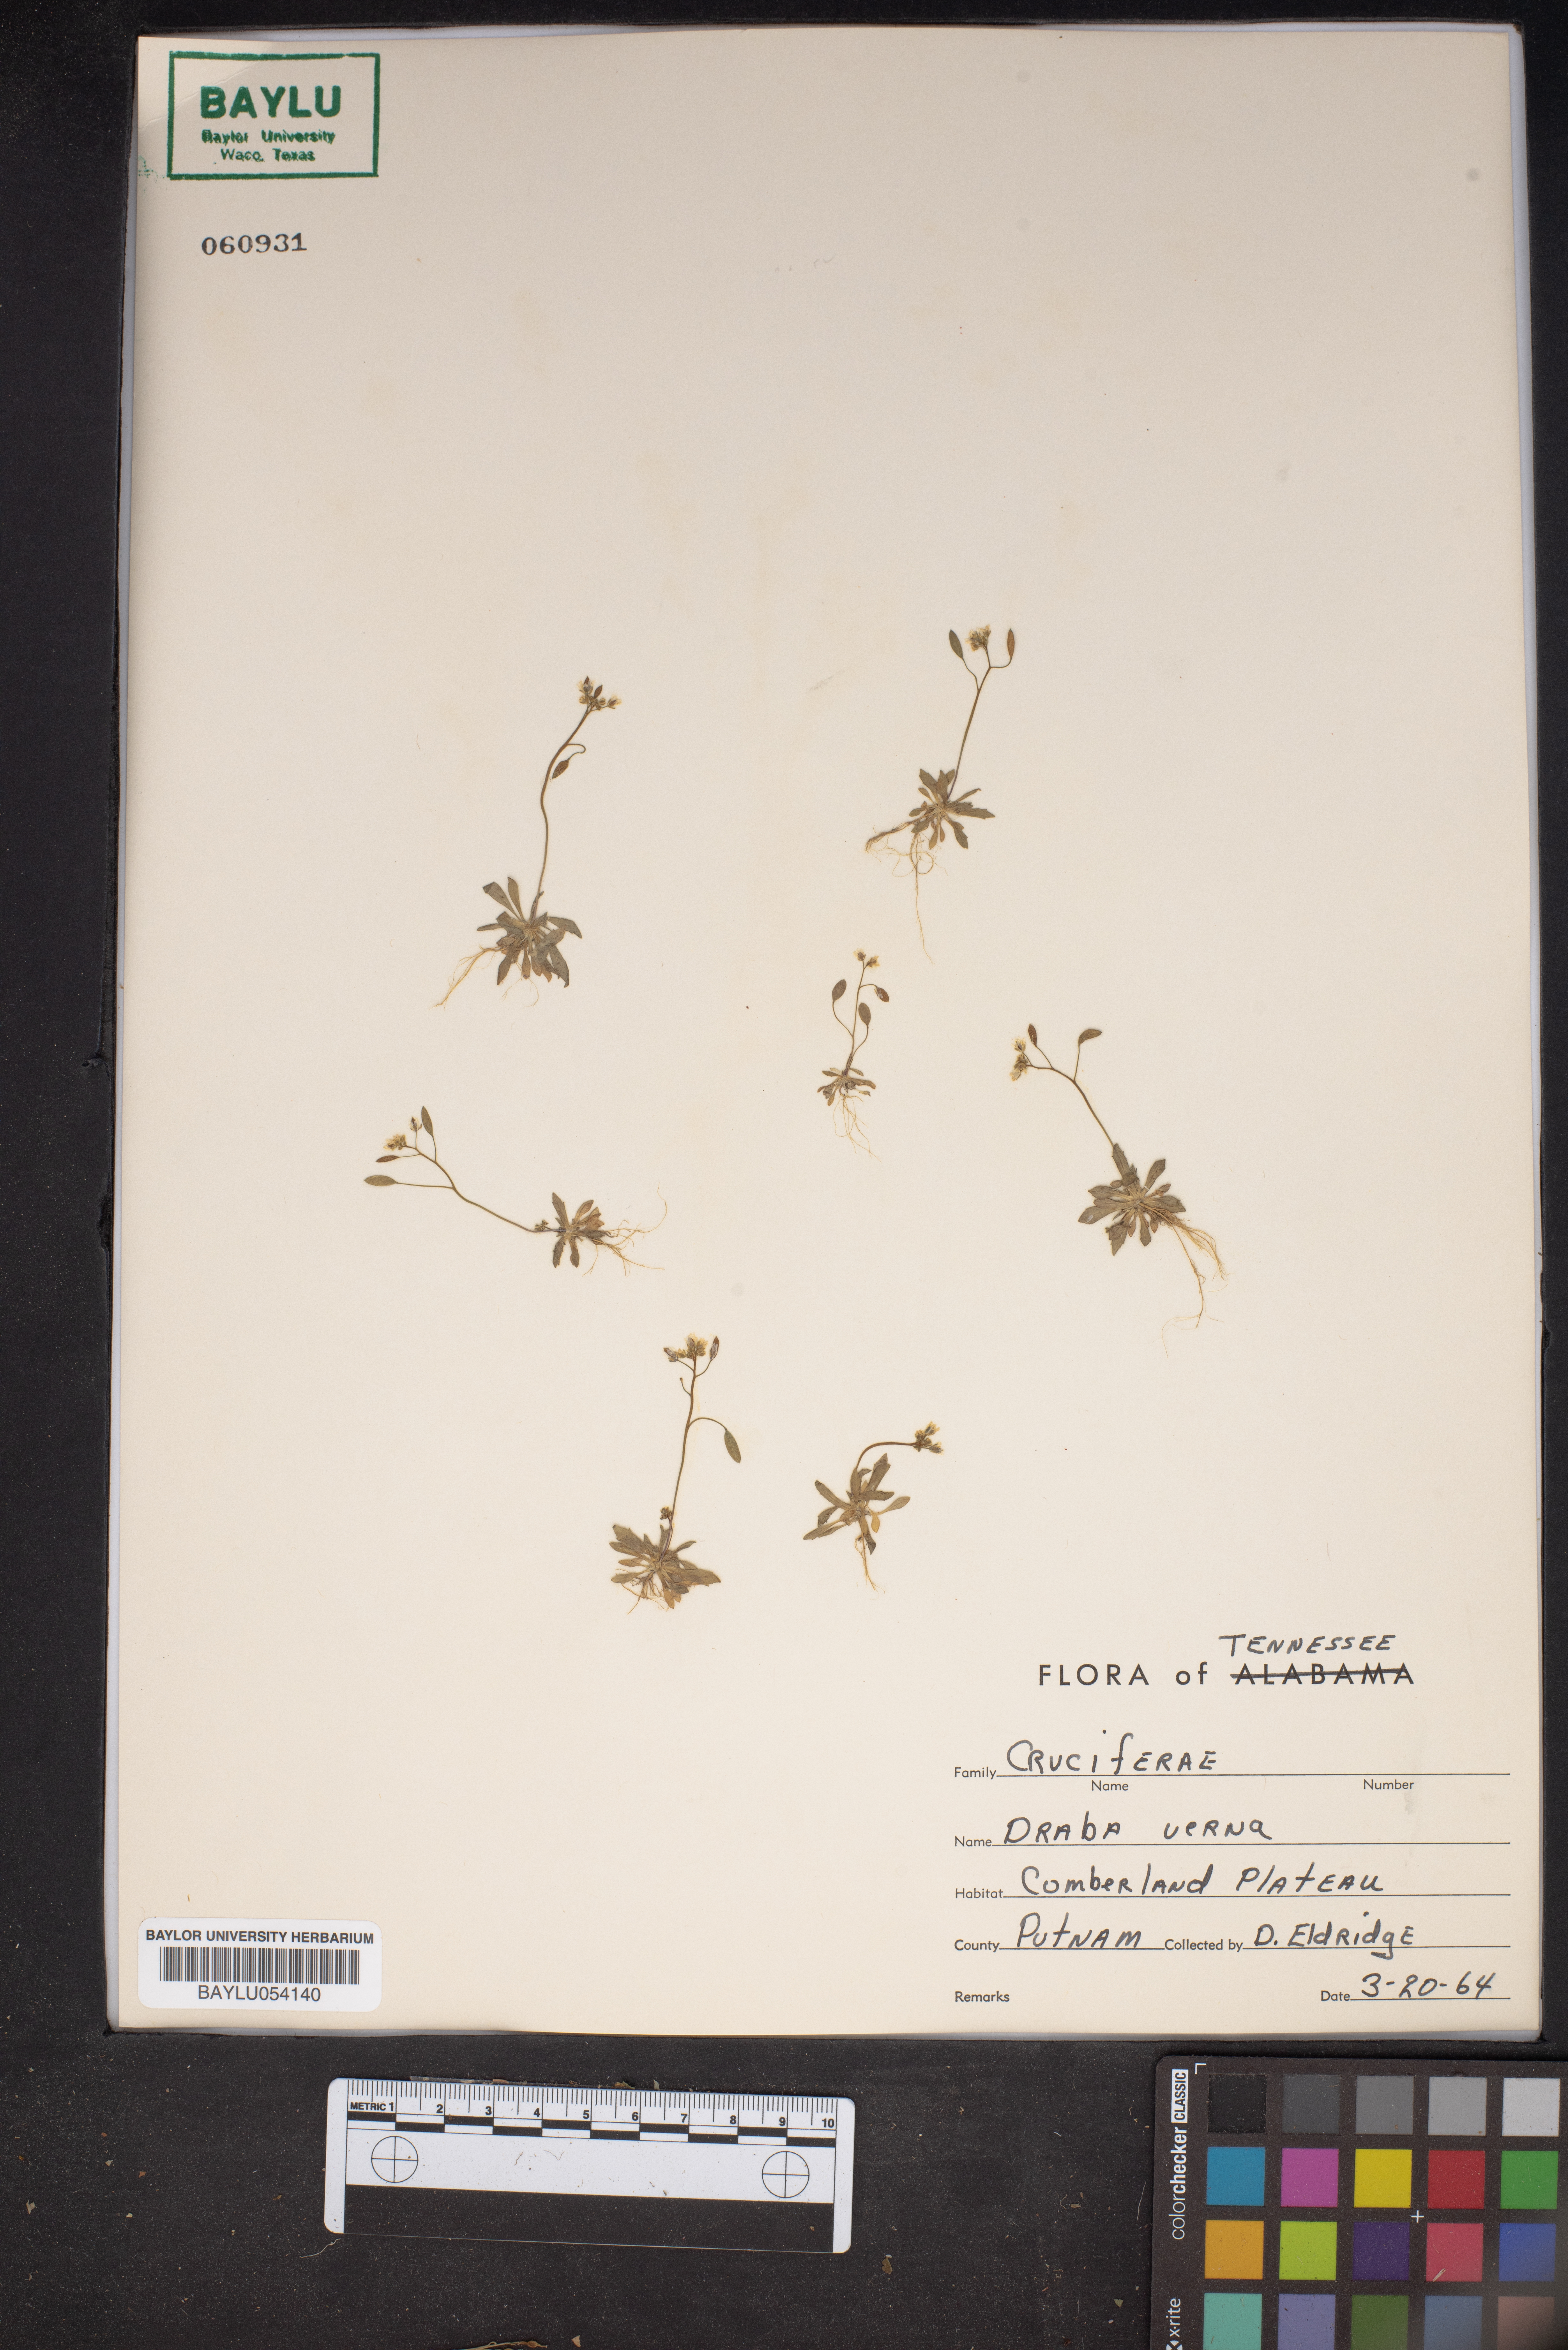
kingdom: Plantae
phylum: Tracheophyta
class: Magnoliopsida
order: Brassicales
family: Brassicaceae
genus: Draba
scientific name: Draba verna
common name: Spring draba
